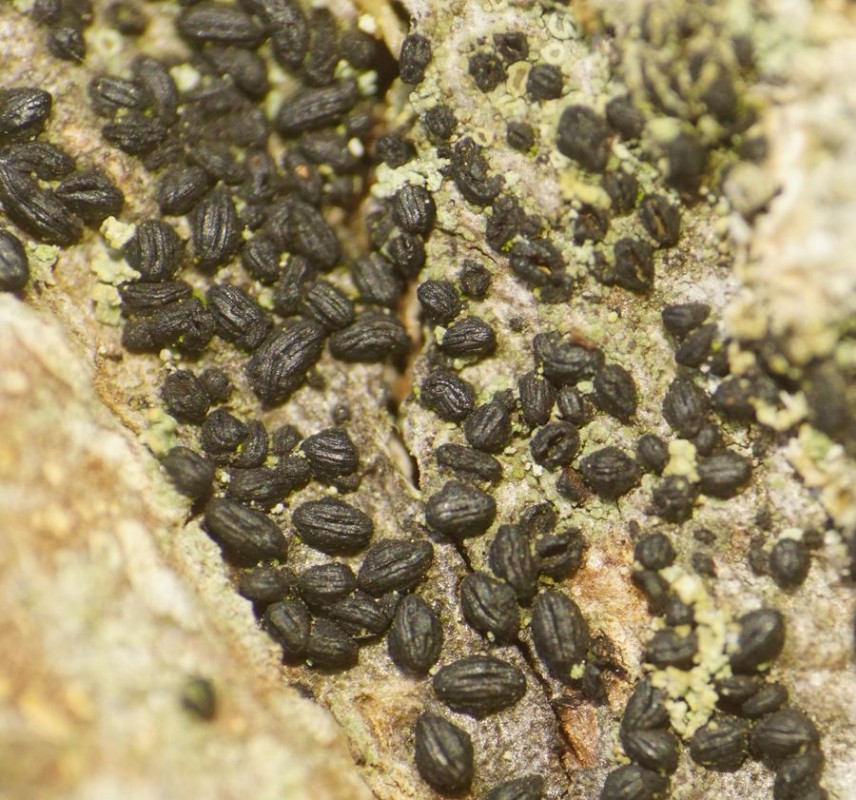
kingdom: Fungi
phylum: Ascomycota
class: Dothideomycetes
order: Hysteriales
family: Hysteriaceae
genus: Hysterium
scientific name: Hysterium
